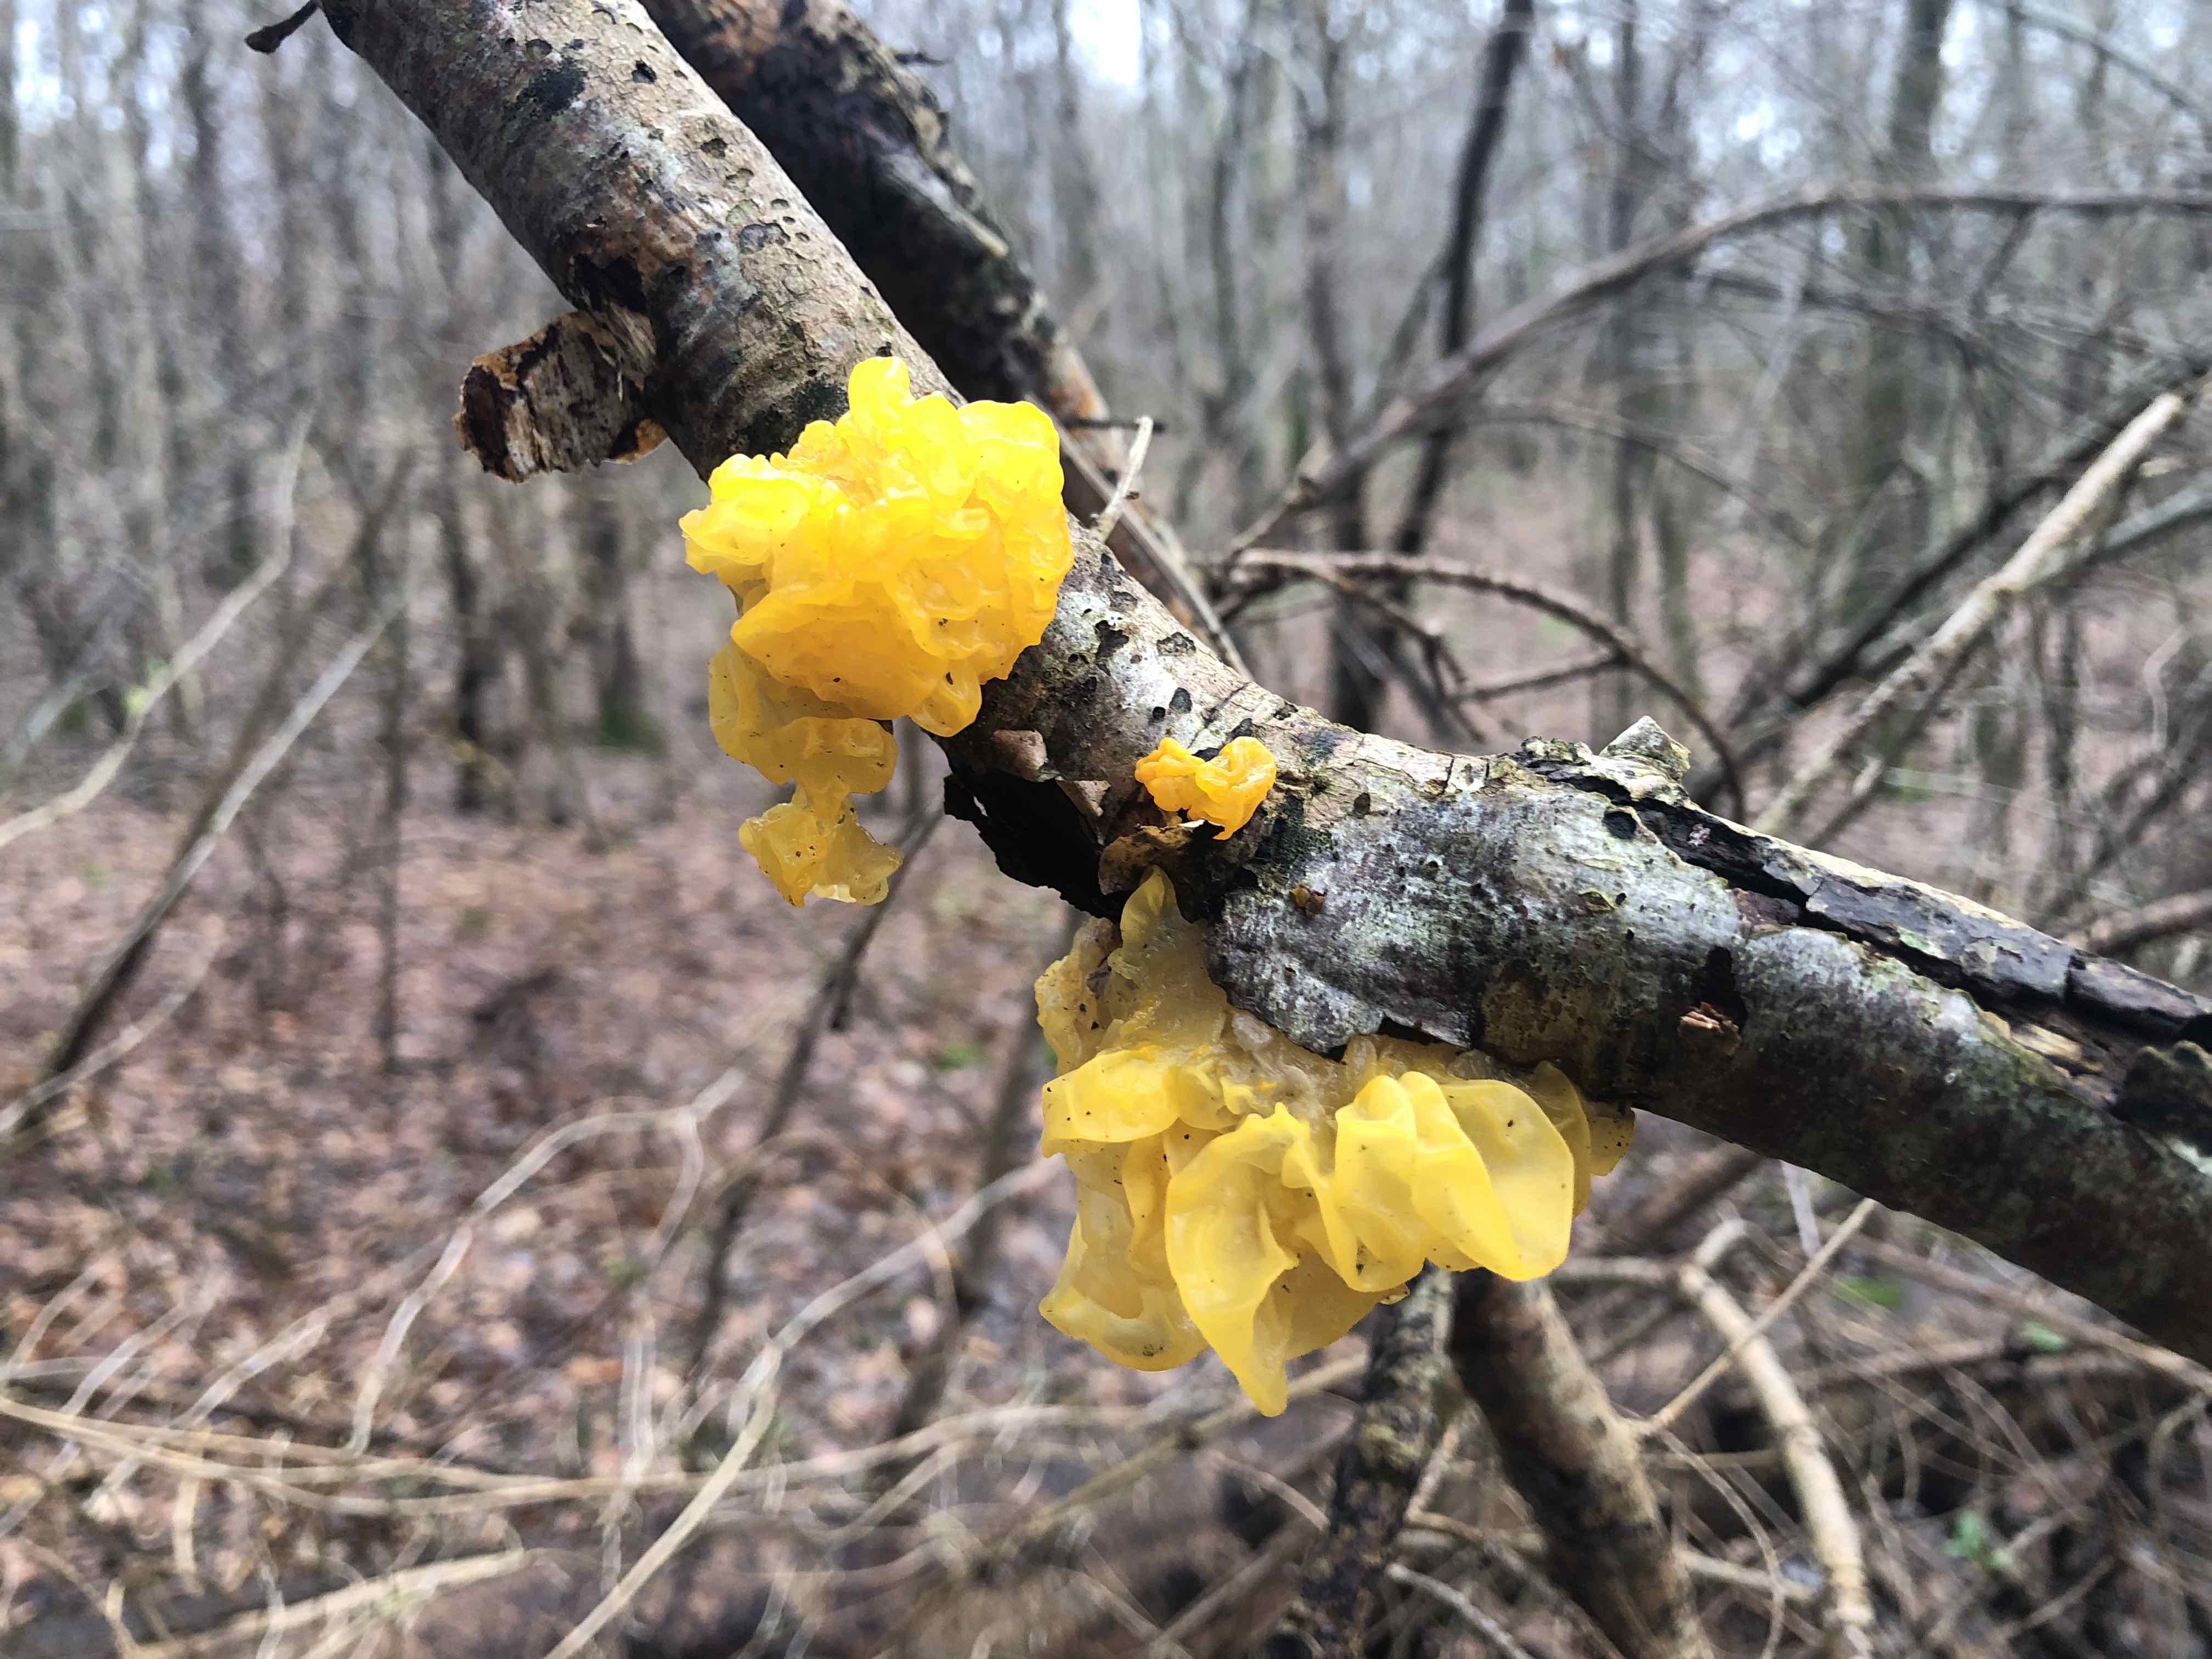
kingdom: Fungi
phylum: Basidiomycota
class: Tremellomycetes
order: Tremellales
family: Tremellaceae
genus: Tremella
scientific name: Tremella mesenterica
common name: gul bævresvamp
